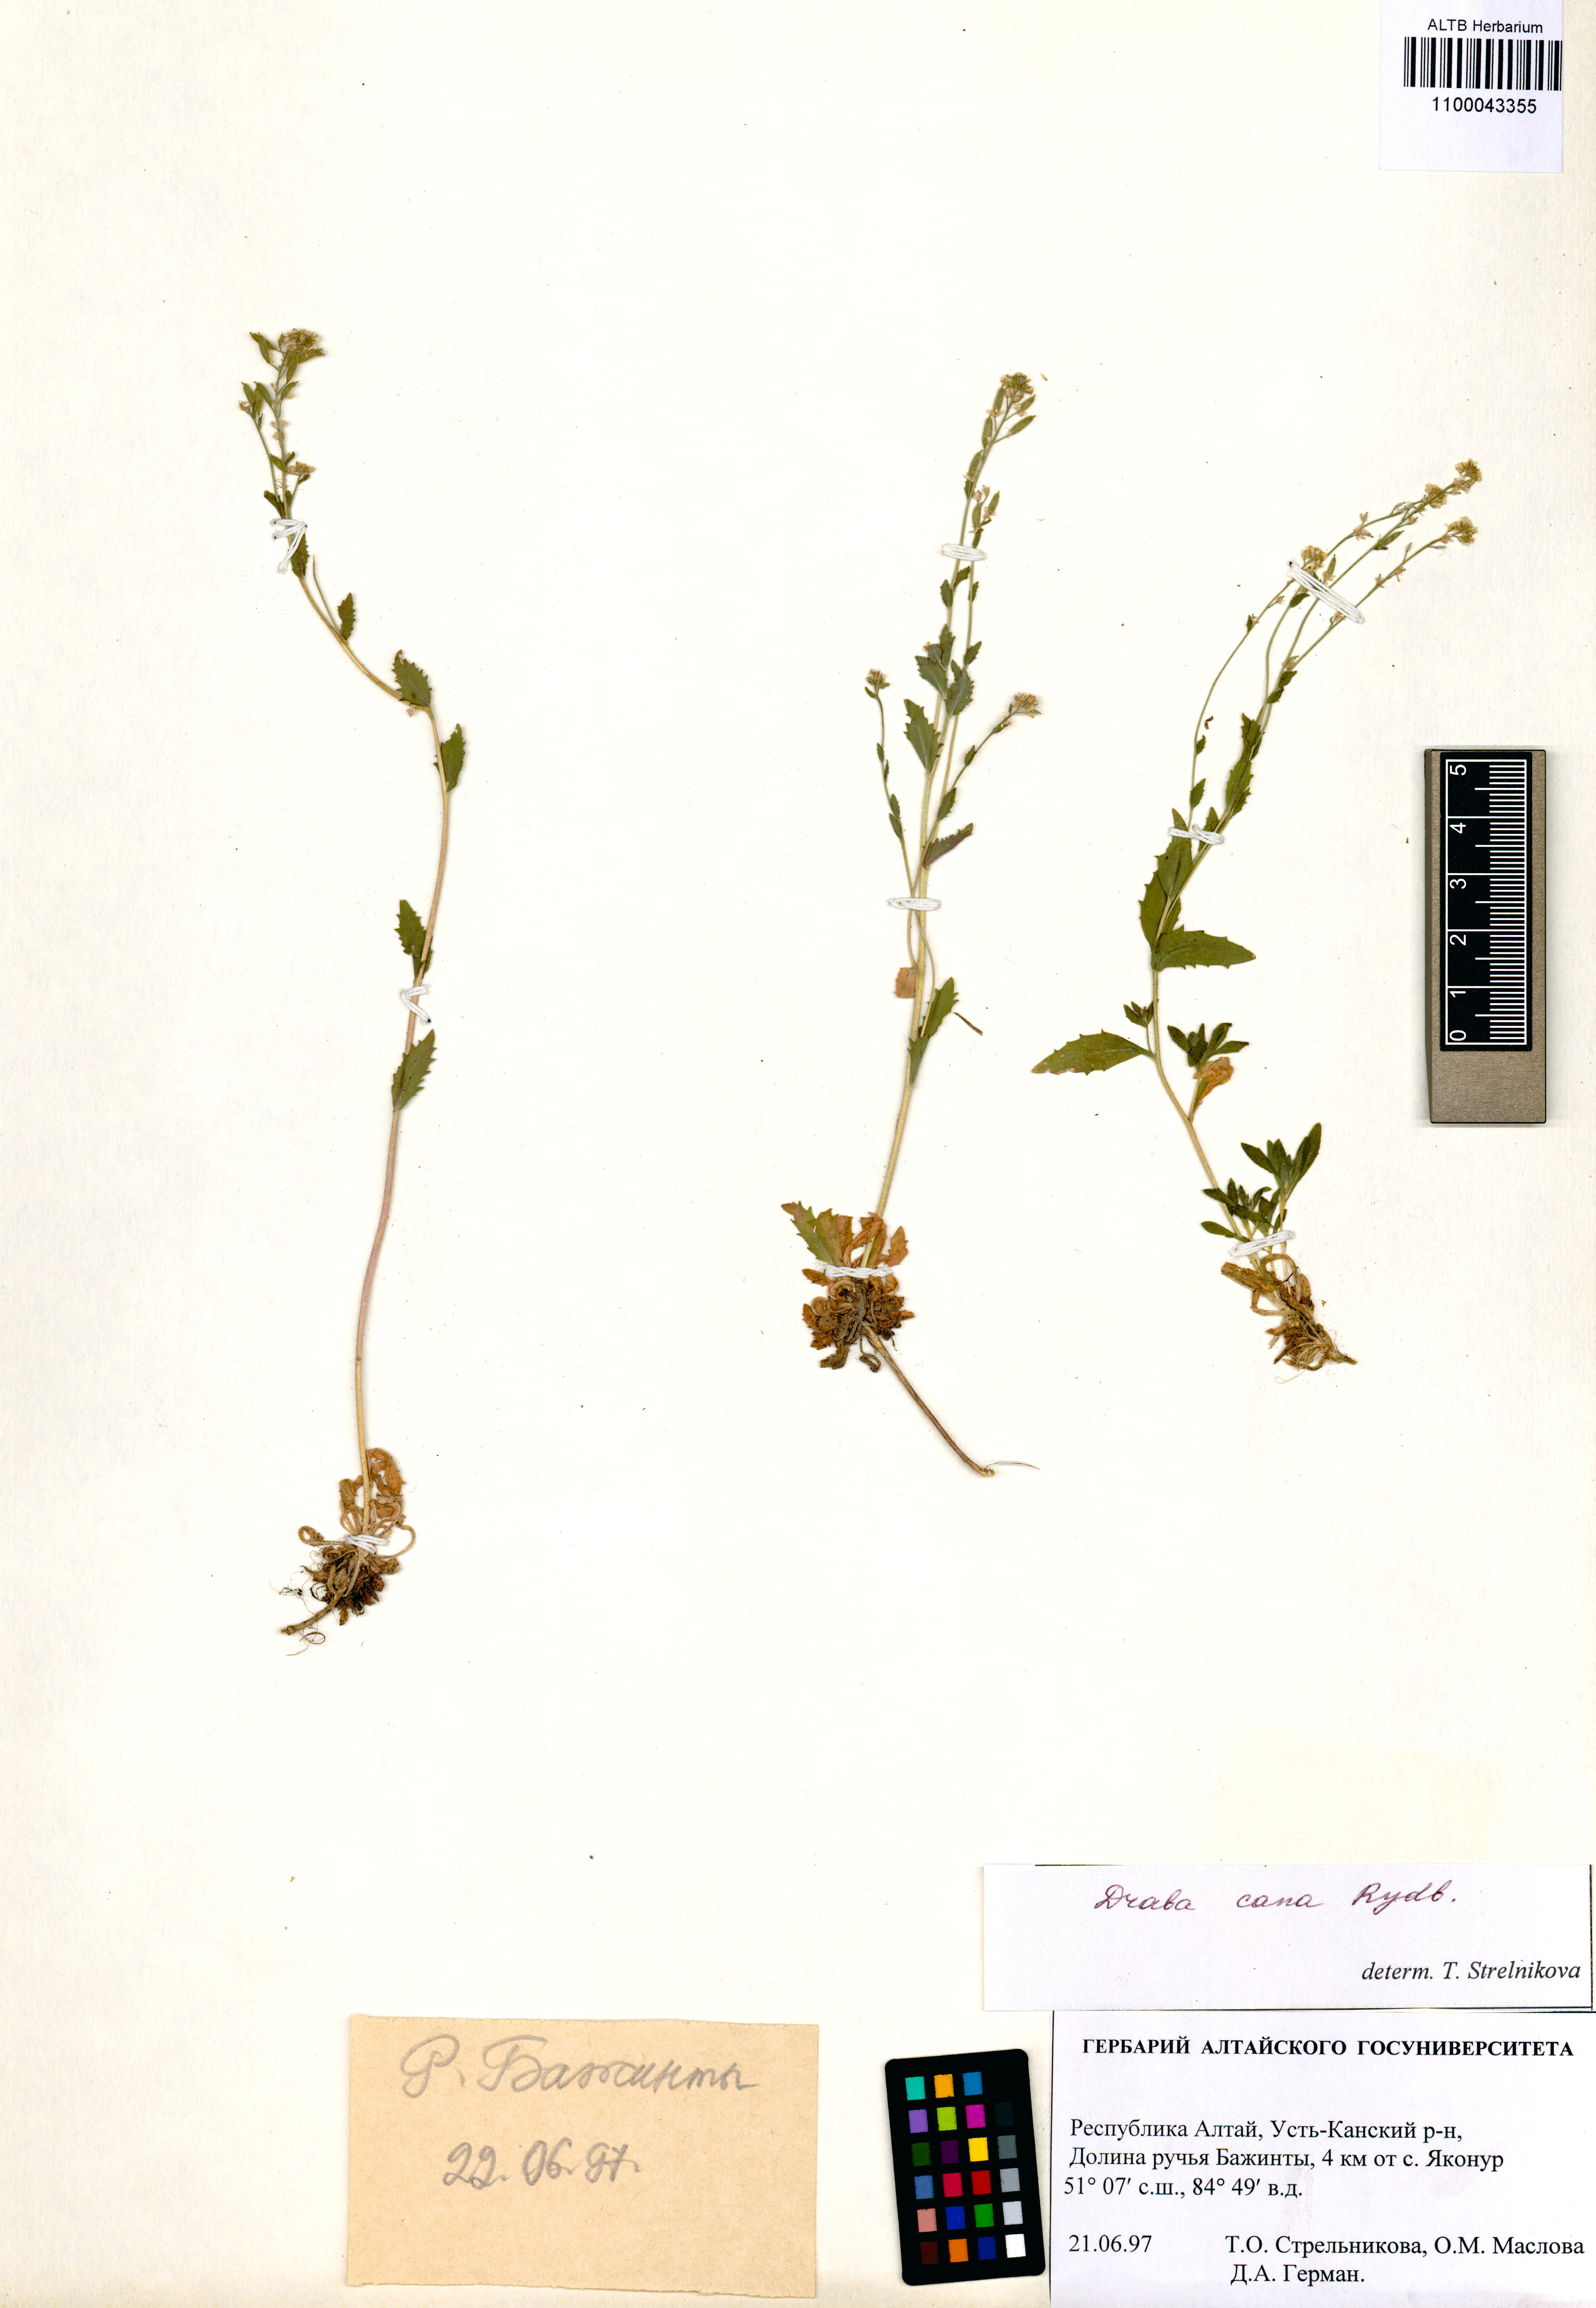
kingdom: Plantae
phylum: Tracheophyta
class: Magnoliopsida
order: Brassicales
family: Brassicaceae
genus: Draba
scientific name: Draba cana
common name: Hoary draba
